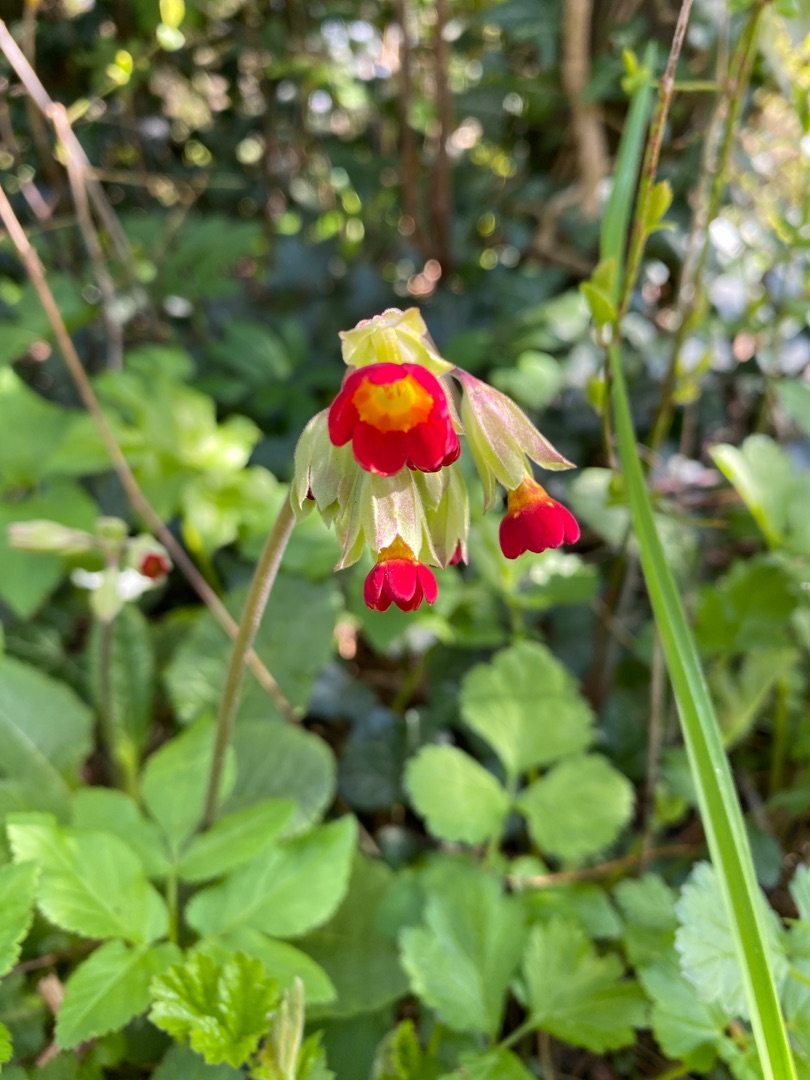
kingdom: Plantae
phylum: Tracheophyta
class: Magnoliopsida
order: Ericales
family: Primulaceae
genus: Primula
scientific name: Primula veris
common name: Hulkravet kodriver
